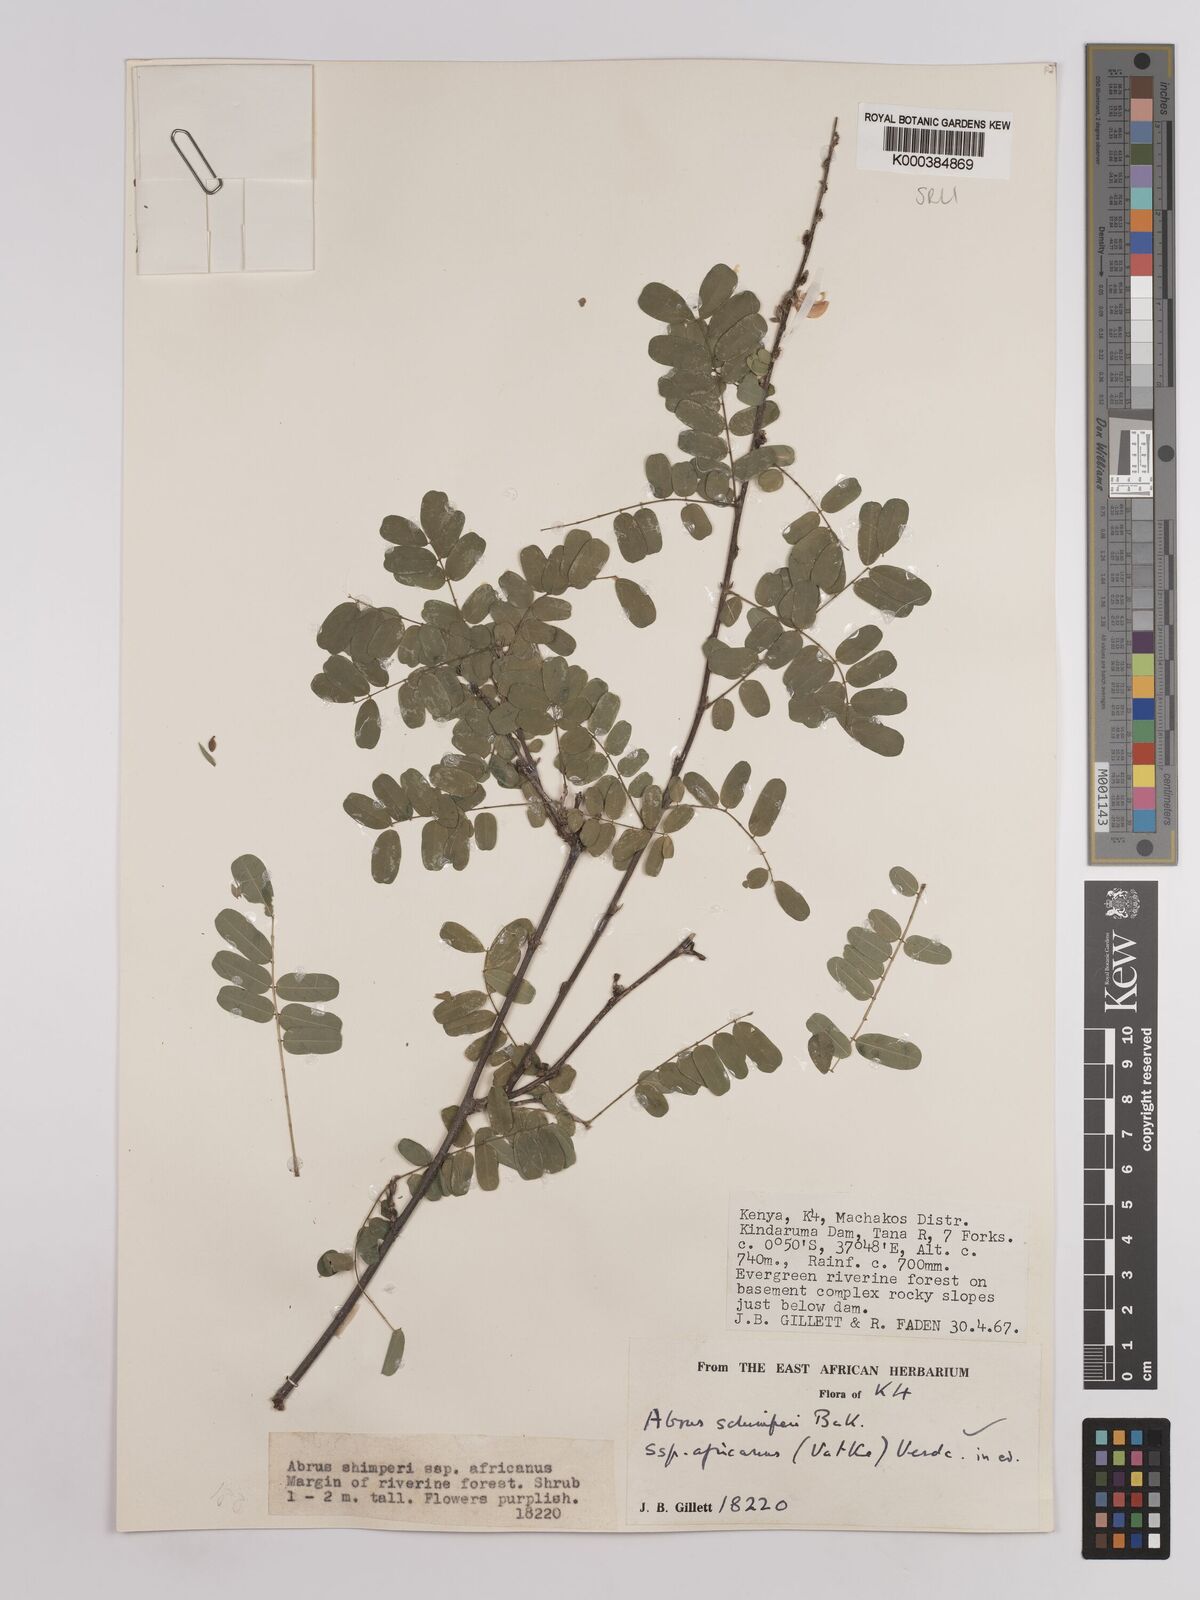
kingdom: Plantae
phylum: Tracheophyta
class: Magnoliopsida
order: Fabales
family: Fabaceae
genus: Abrus
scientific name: Abrus fruticulosus
